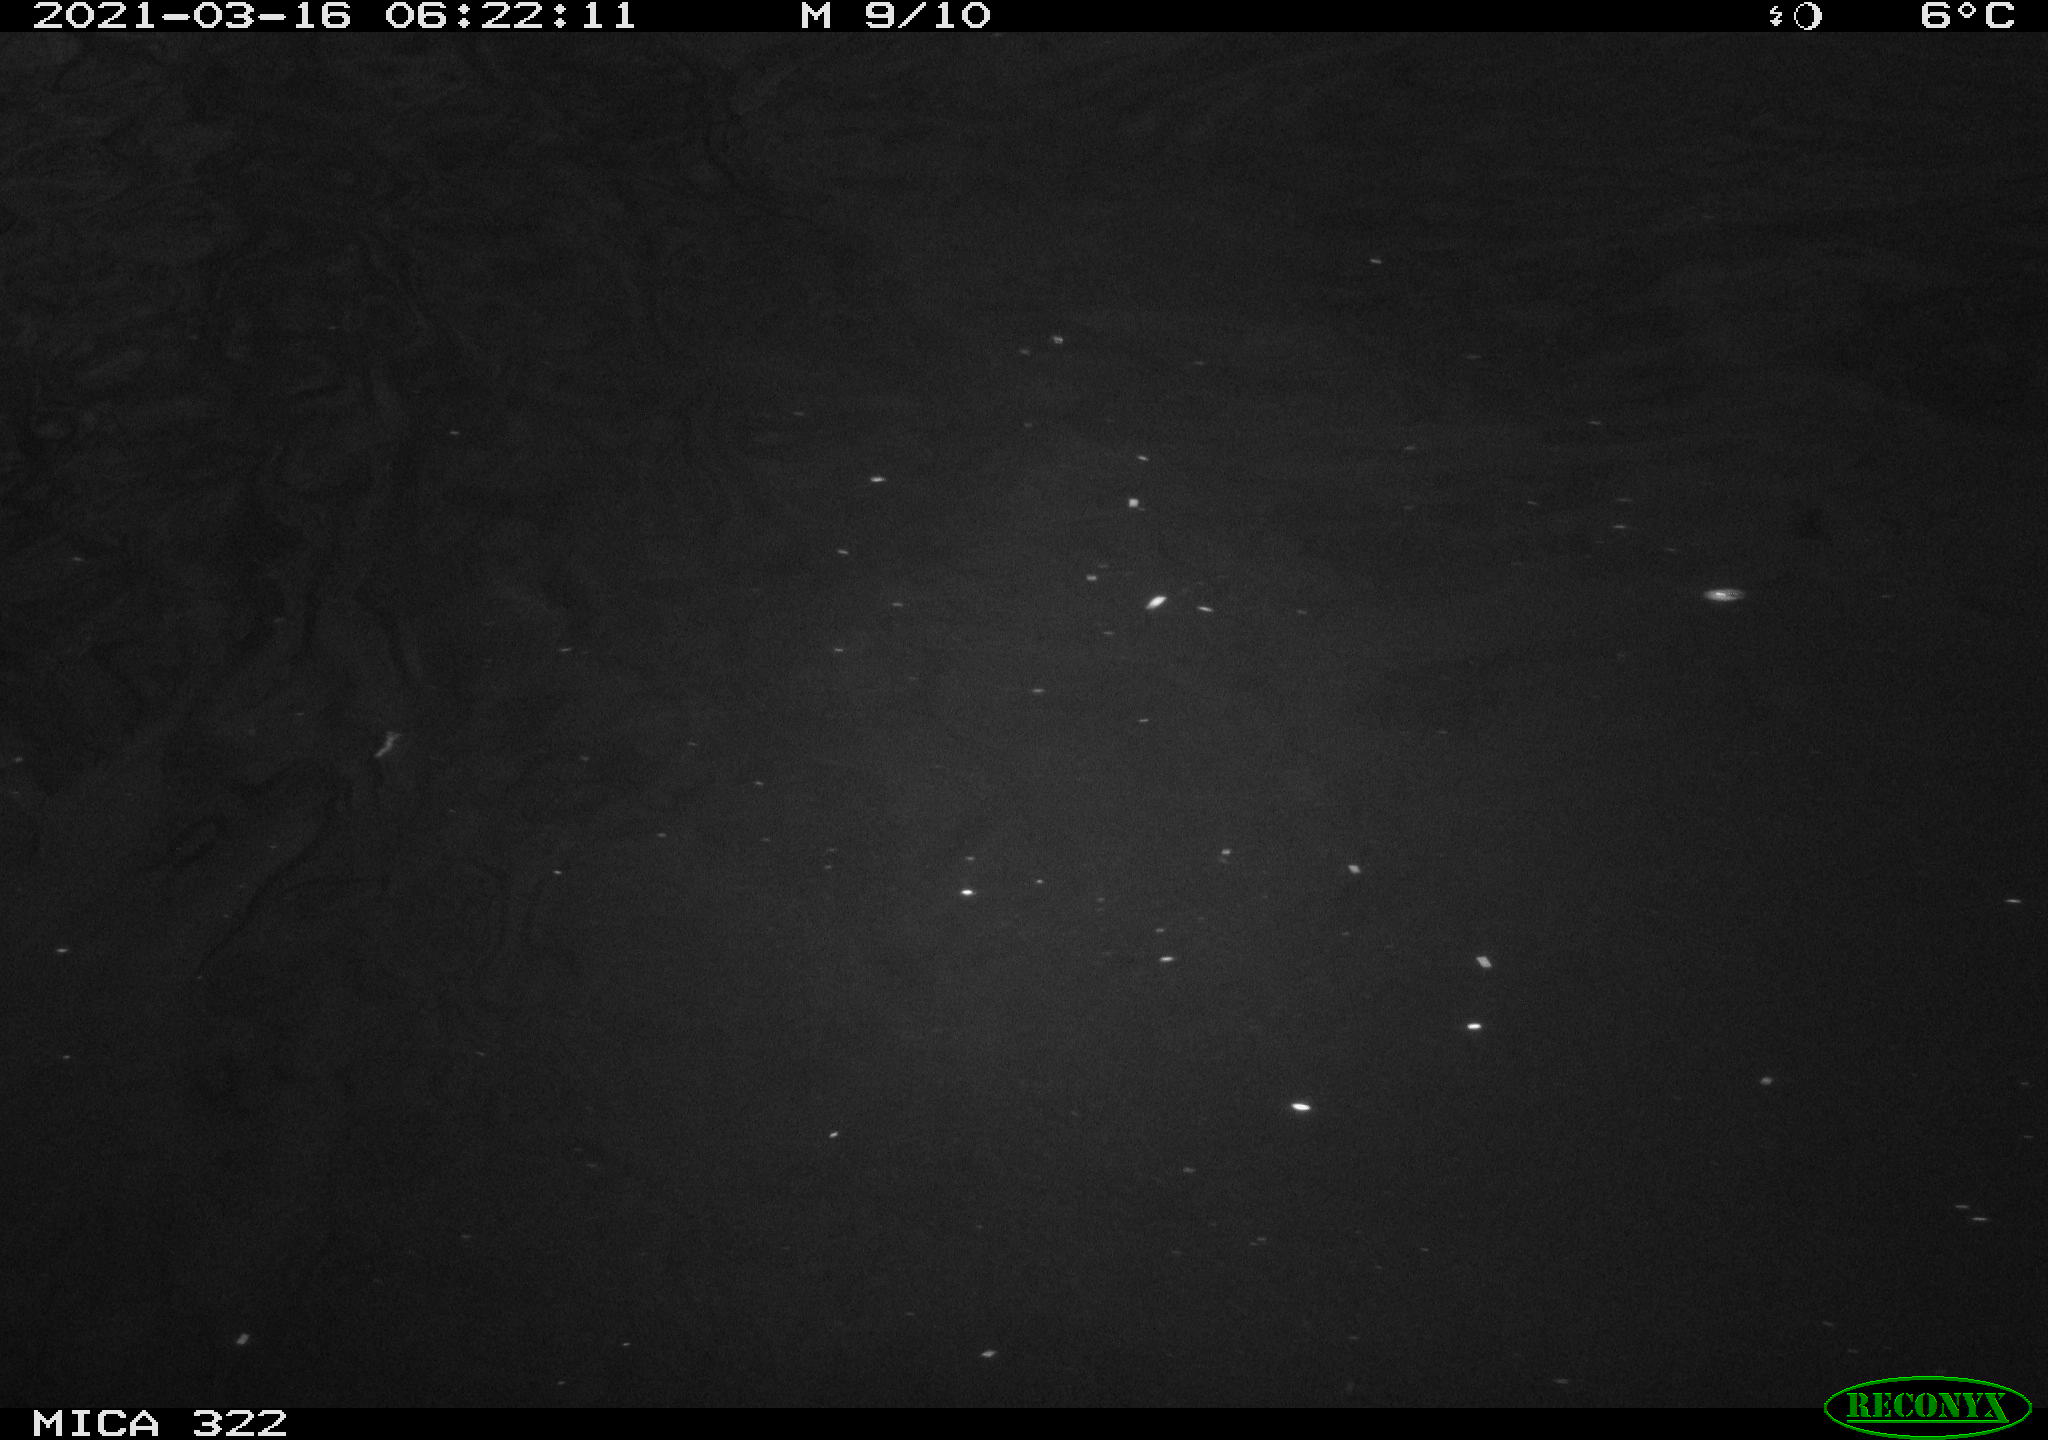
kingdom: Animalia
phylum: Chordata
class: Aves
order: Anseriformes
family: Anatidae
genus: Anas
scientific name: Anas platyrhynchos
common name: Mallard
